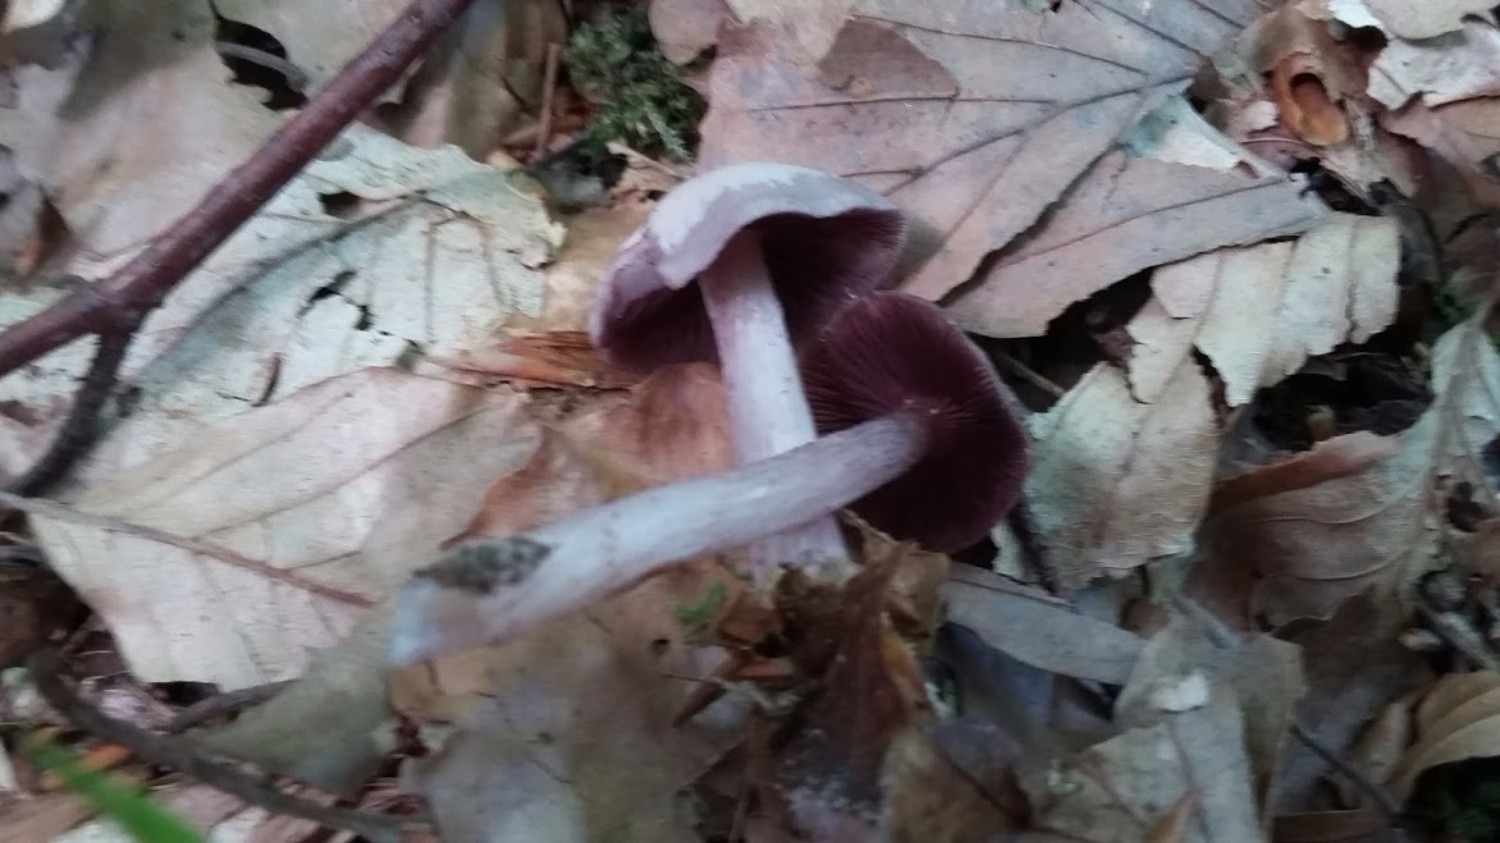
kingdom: Fungi
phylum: Basidiomycota
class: Agaricomycetes
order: Agaricales
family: Mycenaceae
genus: Mycena
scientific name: Mycena pelianthina
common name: mørkbladet huesvamp
